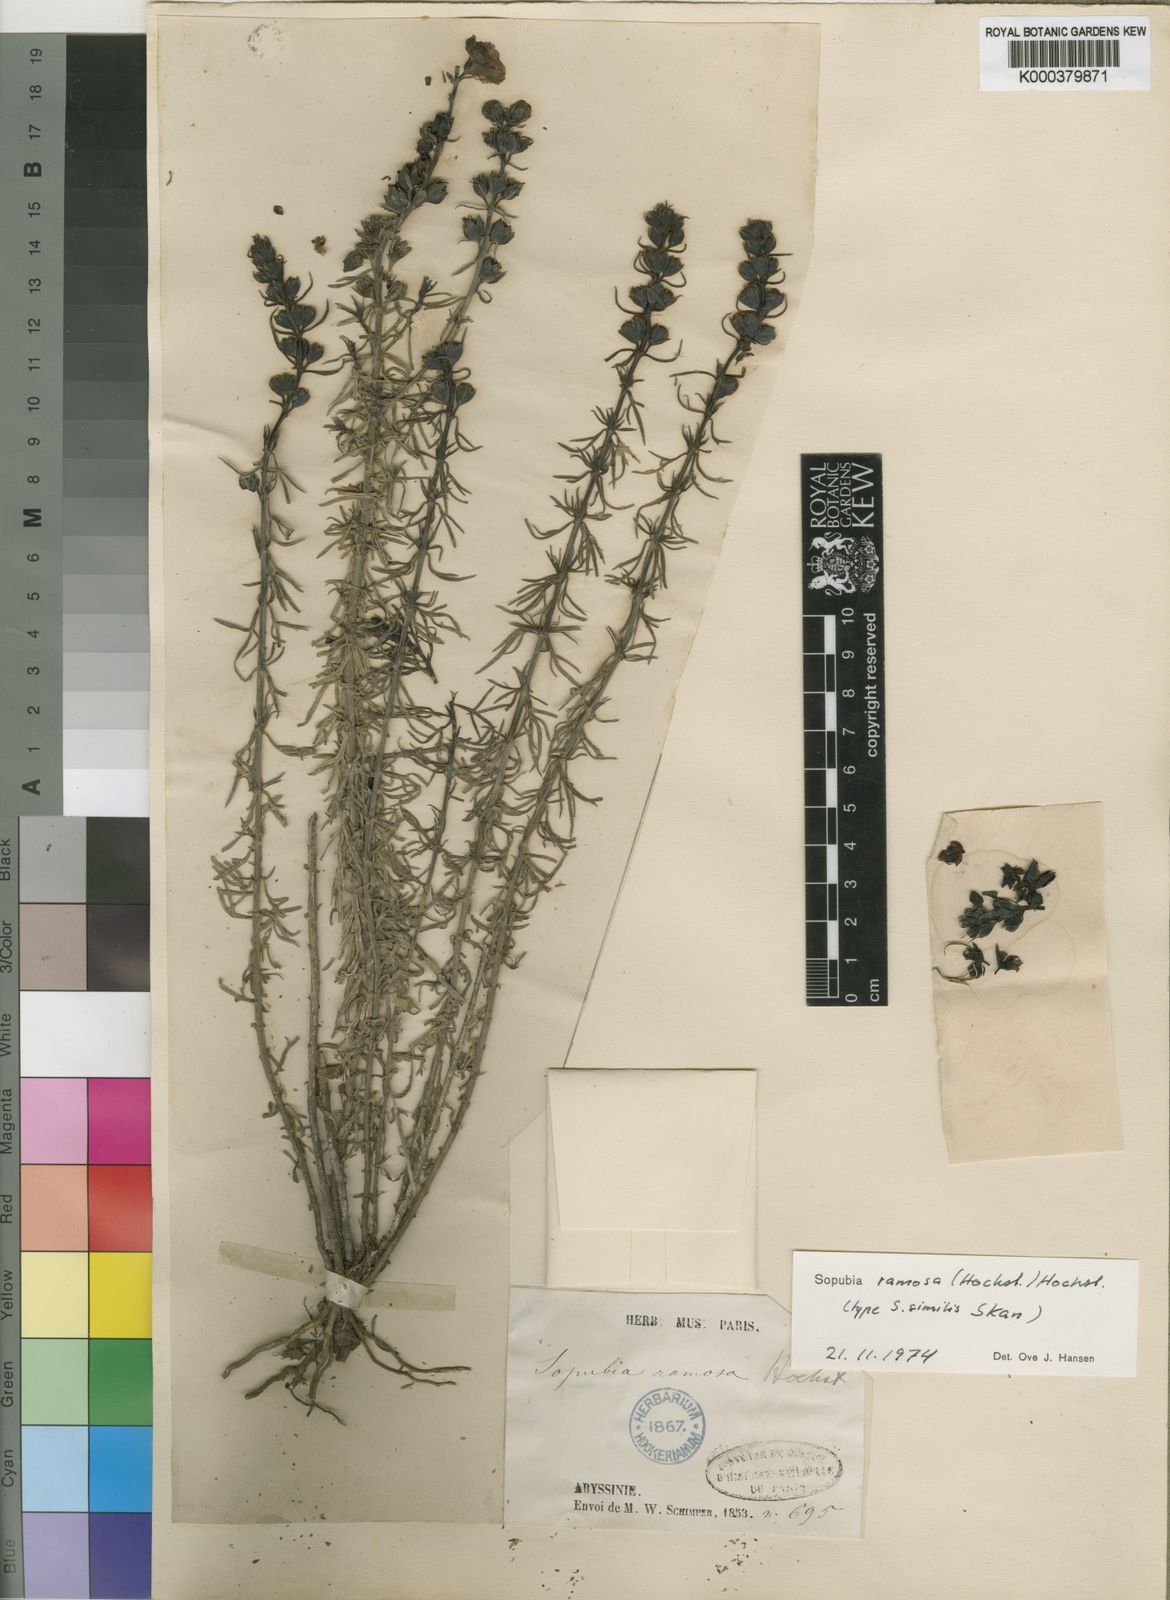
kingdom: Plantae
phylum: Tracheophyta
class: Magnoliopsida
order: Lamiales
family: Orobanchaceae
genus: Sopubia
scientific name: Sopubia ramosa
